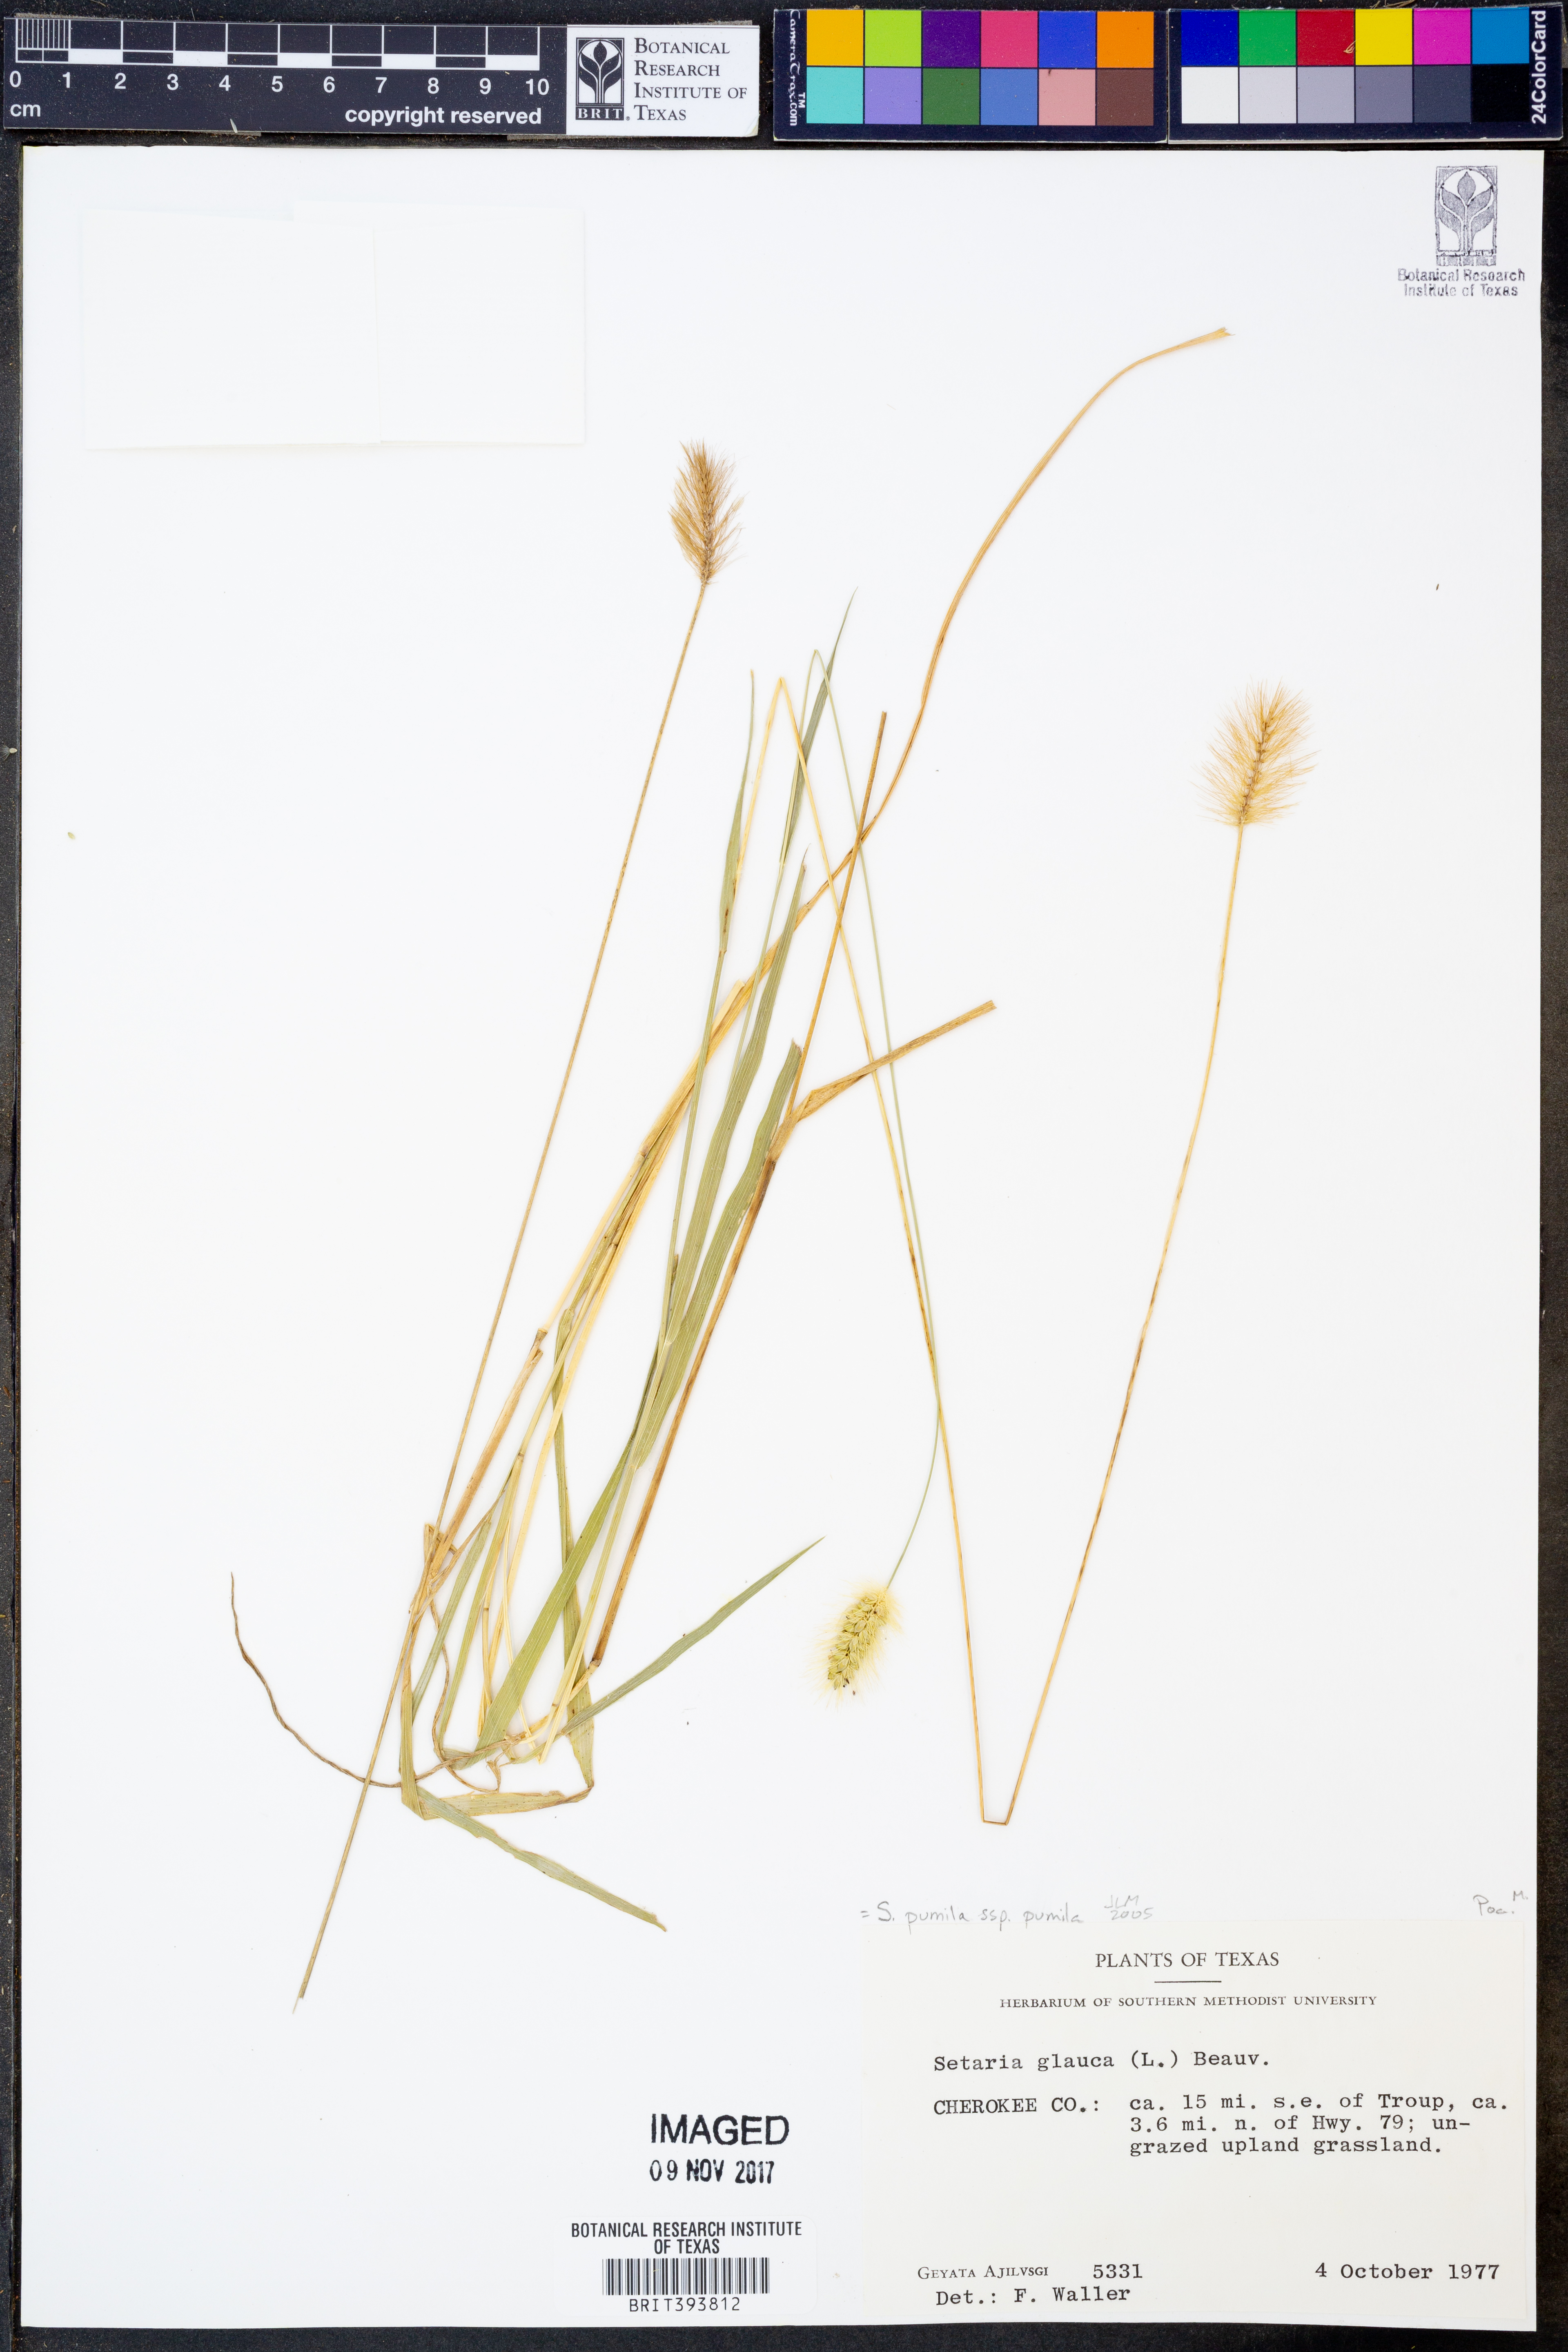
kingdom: Plantae
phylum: Tracheophyta
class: Liliopsida
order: Poales
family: Poaceae
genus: Setaria
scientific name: Setaria pumila
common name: Yellow bristle-grass
